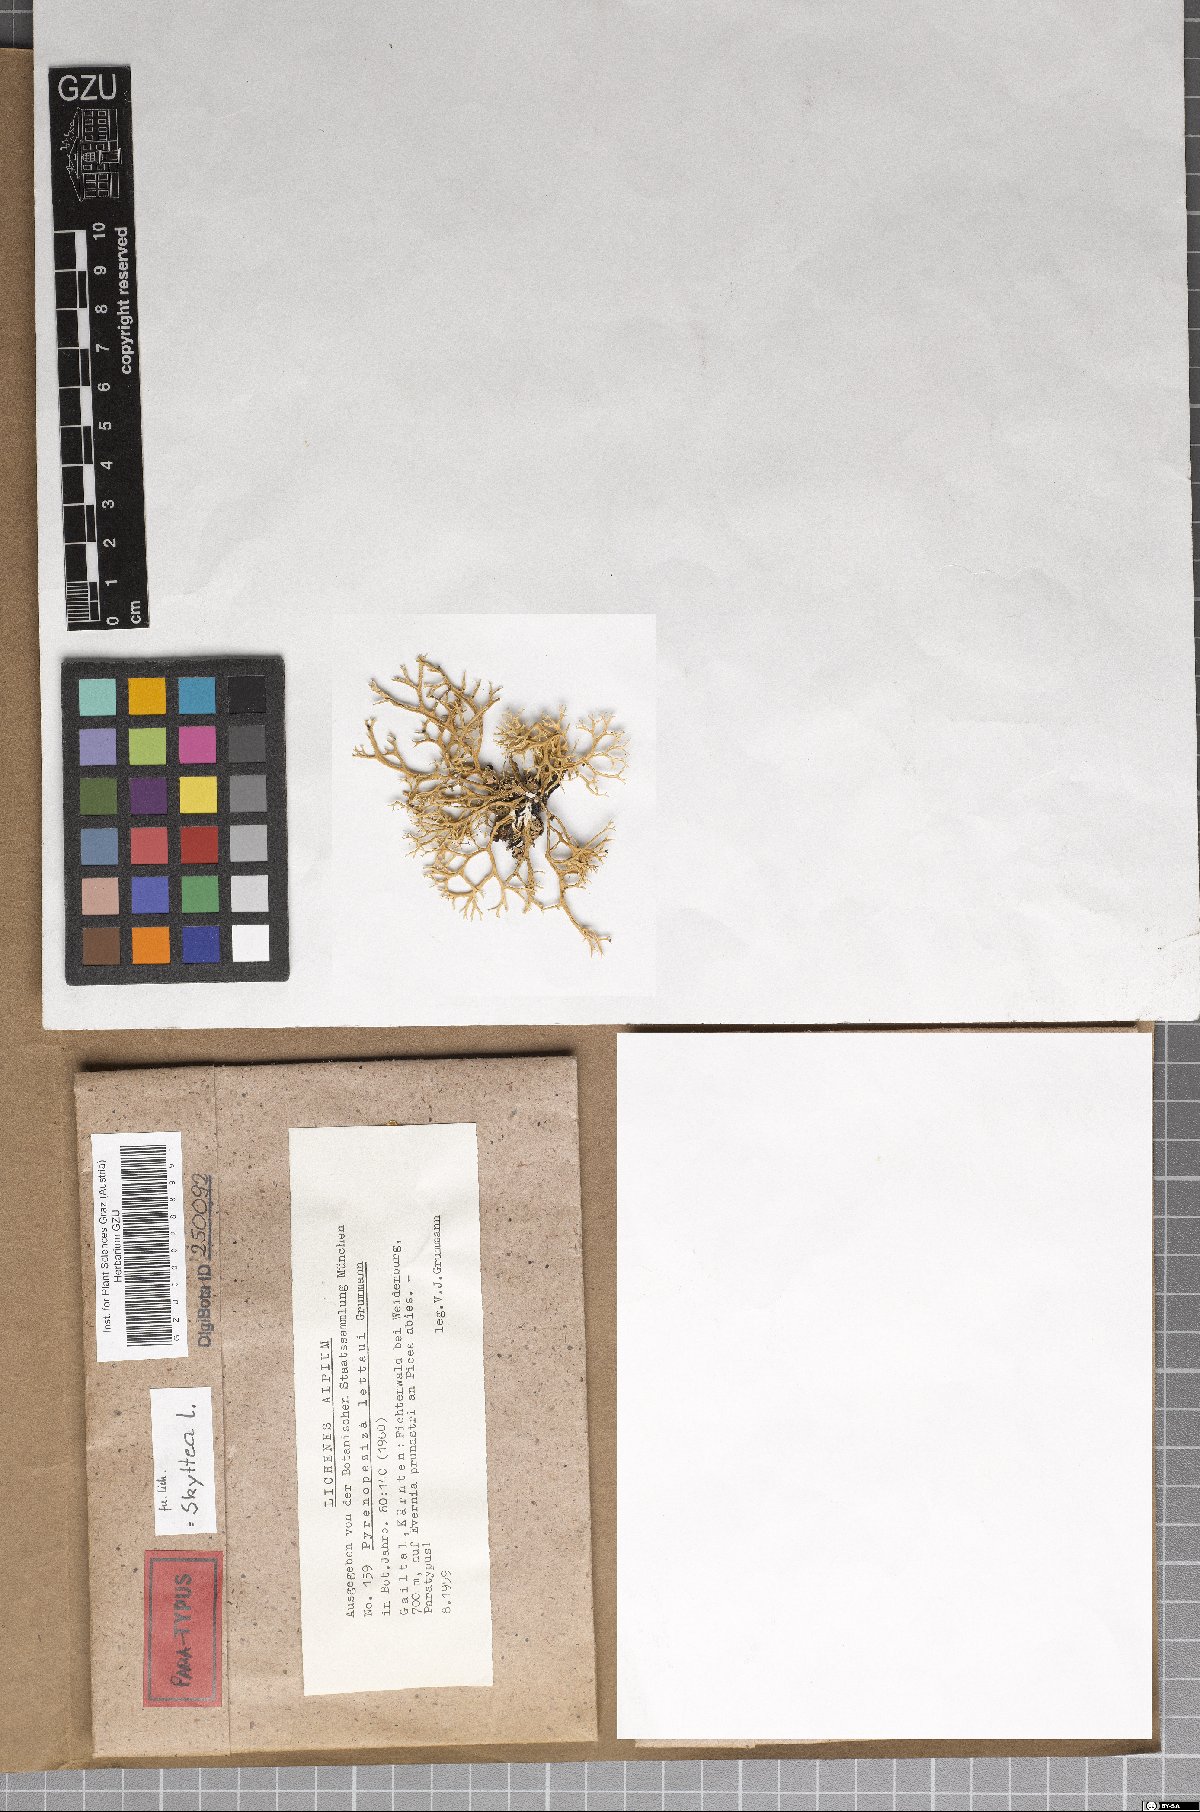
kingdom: Fungi
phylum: Ascomycota
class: Leotiomycetes
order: Helotiales
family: Cordieritidaceae
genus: Unguiculariopsis
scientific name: Unguiculariopsis lettaui
